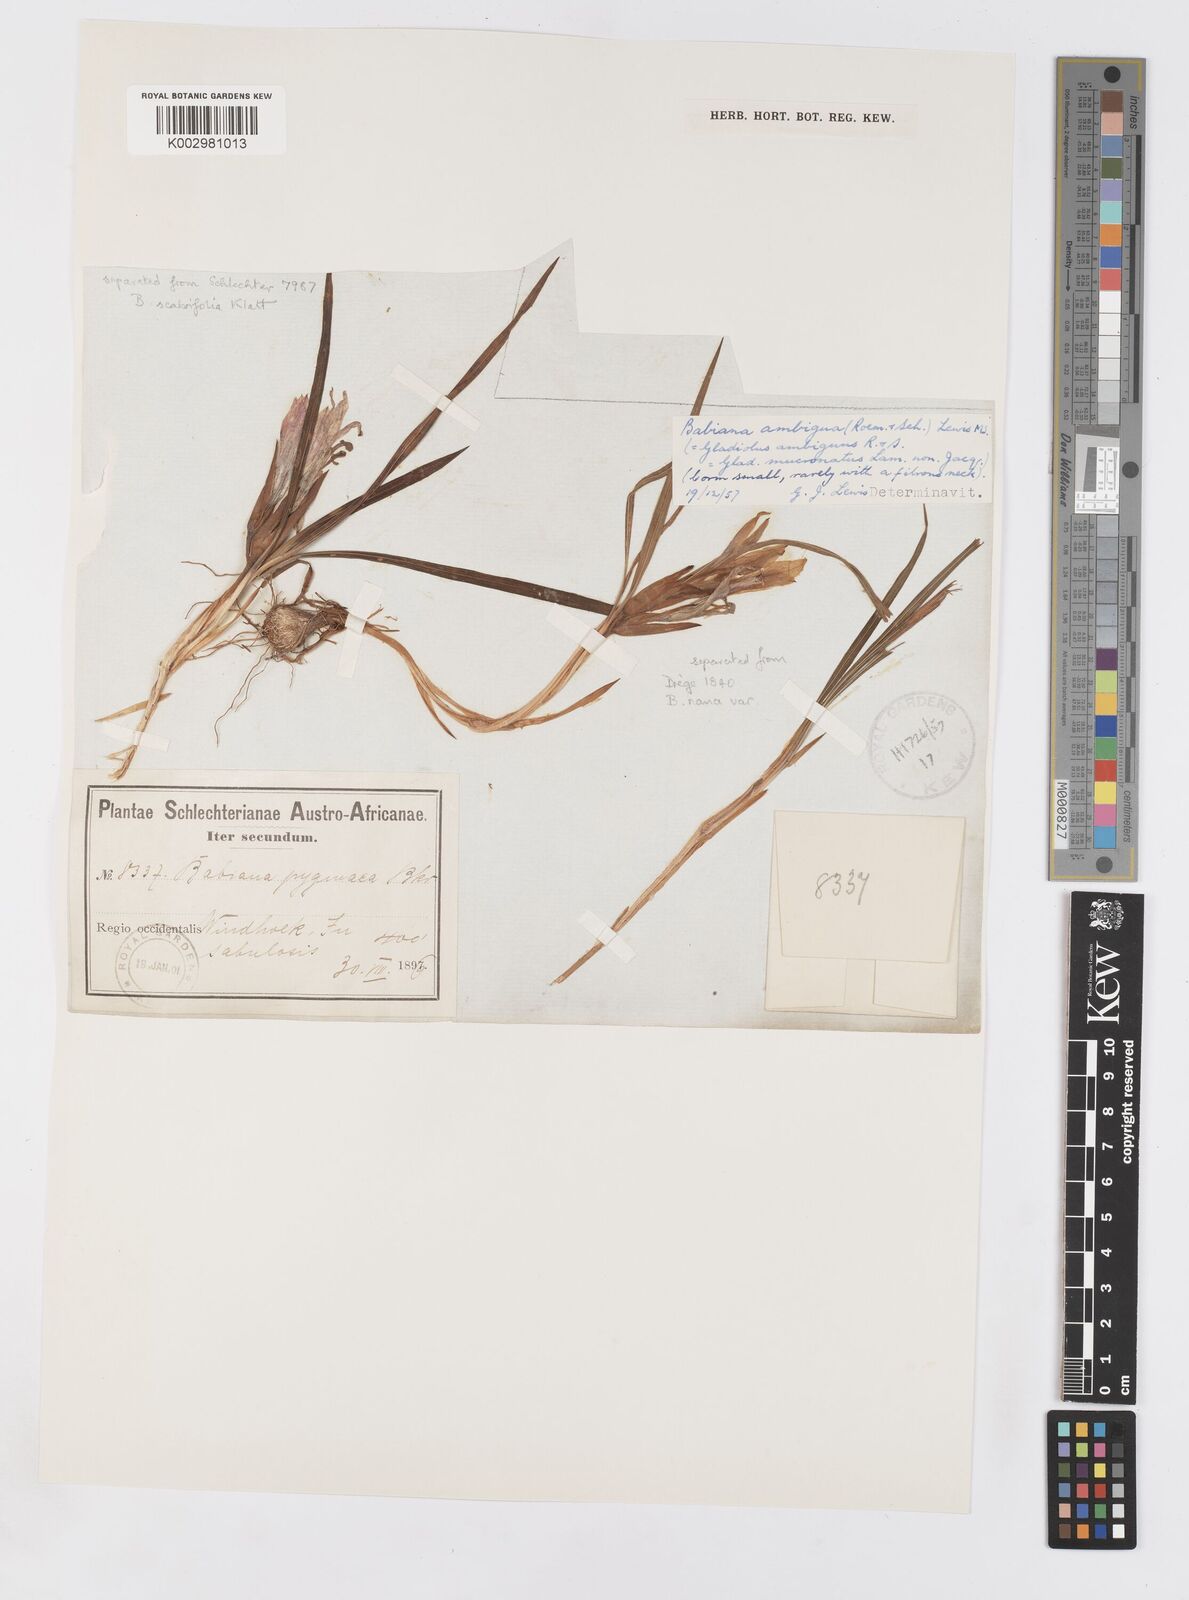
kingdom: Plantae
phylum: Tracheophyta
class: Liliopsida
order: Asparagales
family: Iridaceae
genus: Babiana
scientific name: Babiana ambigua
